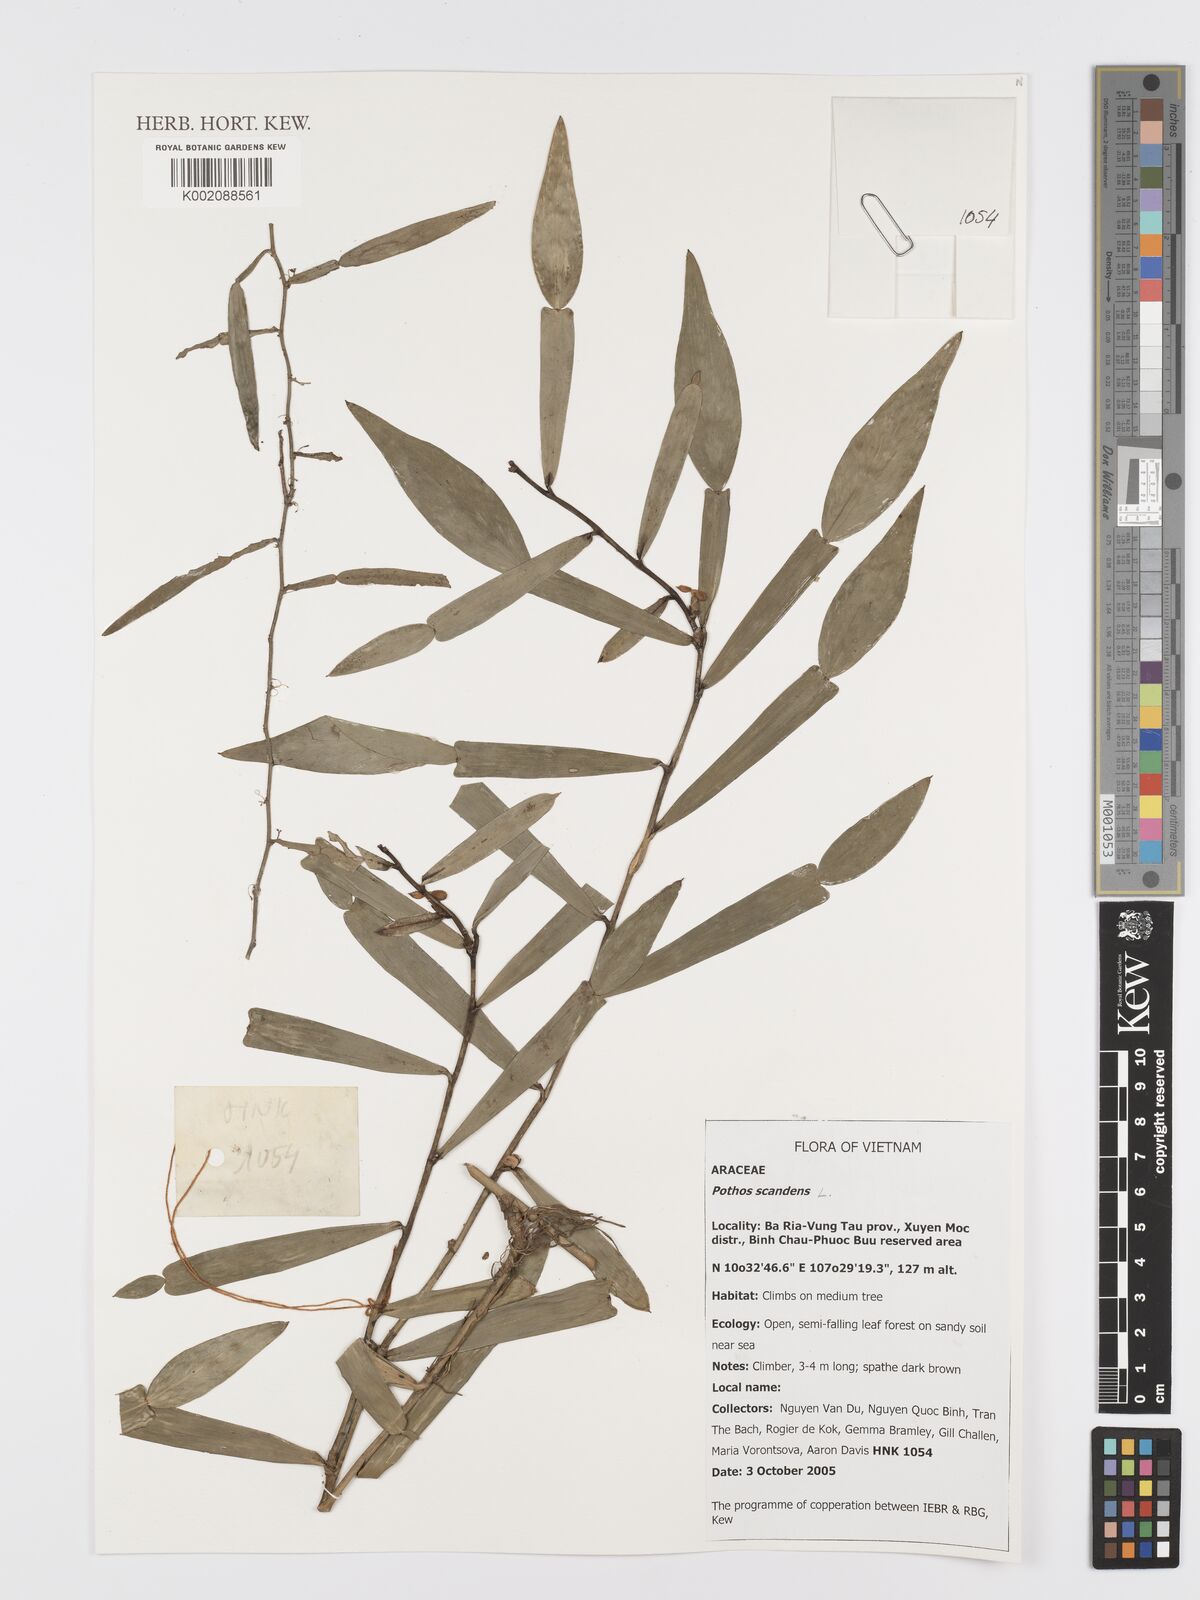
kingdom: Plantae
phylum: Tracheophyta
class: Liliopsida
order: Alismatales
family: Araceae
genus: Pothos
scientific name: Pothos scandens
